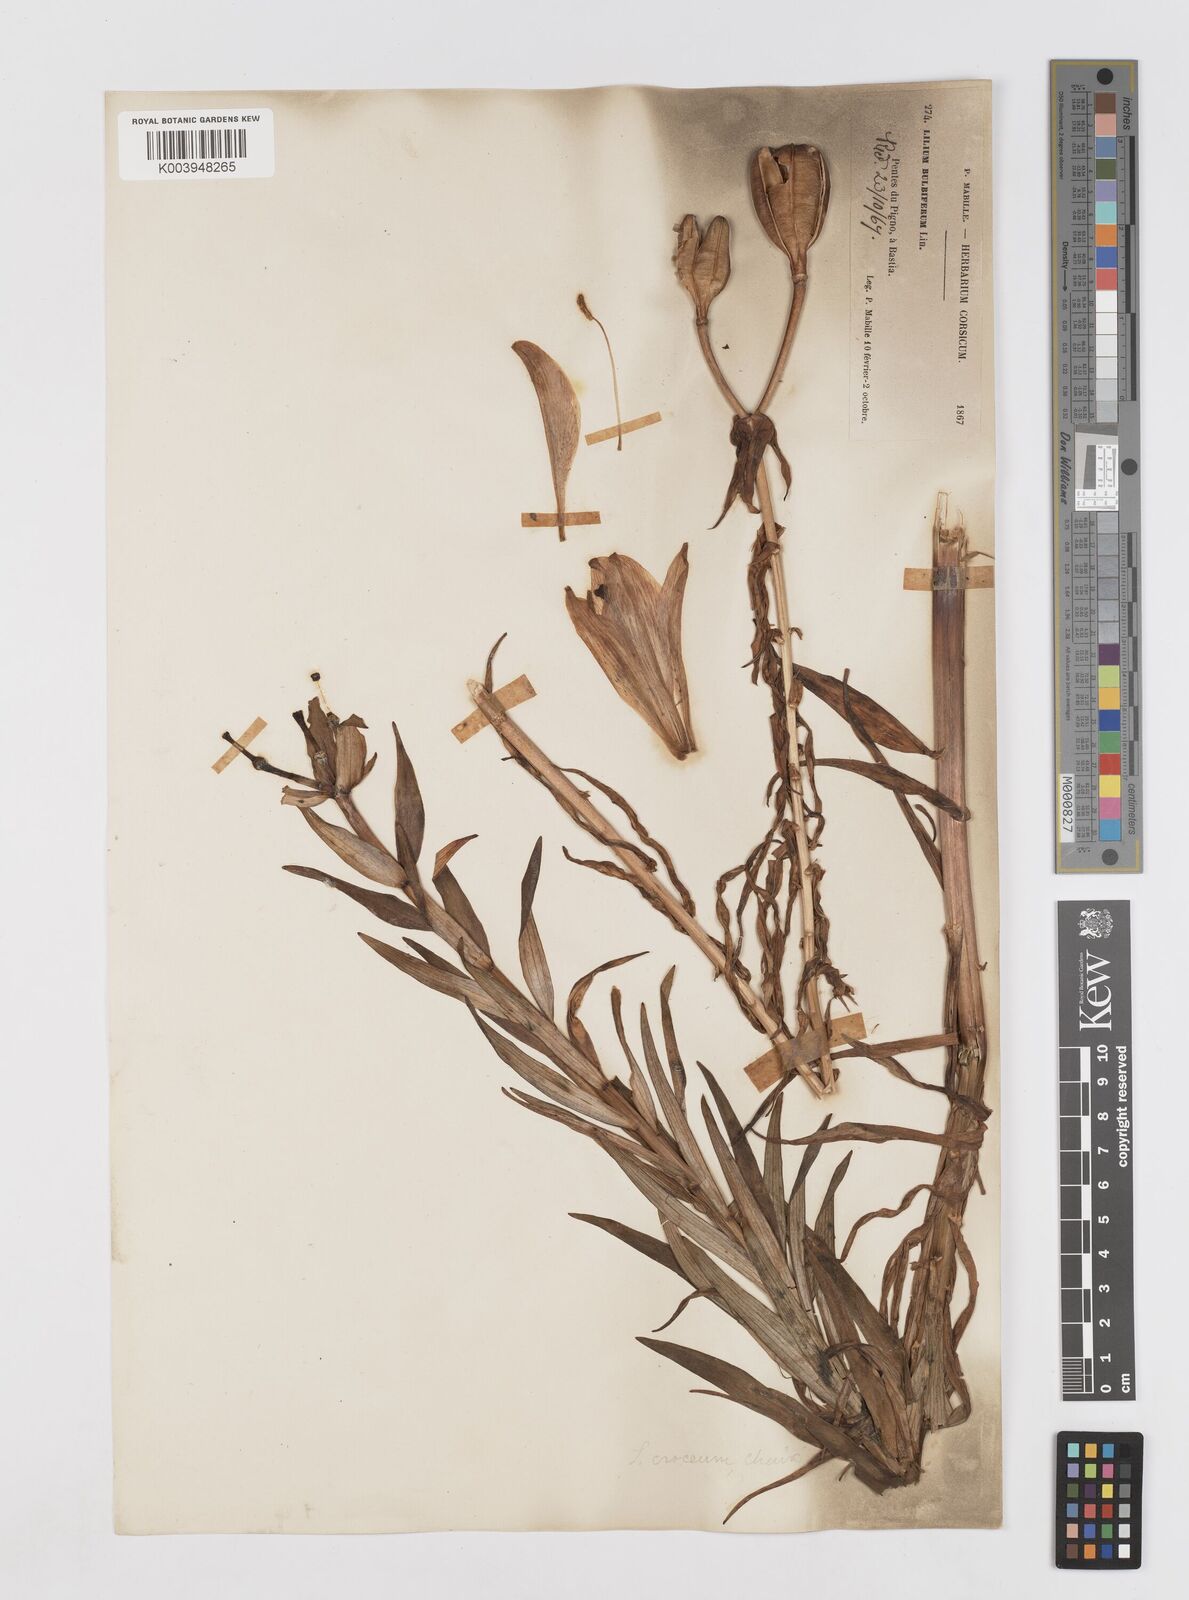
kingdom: Plantae
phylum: Tracheophyta
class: Liliopsida
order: Liliales
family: Liliaceae
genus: Lilium
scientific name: Lilium bulbiferum
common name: Orange lily
